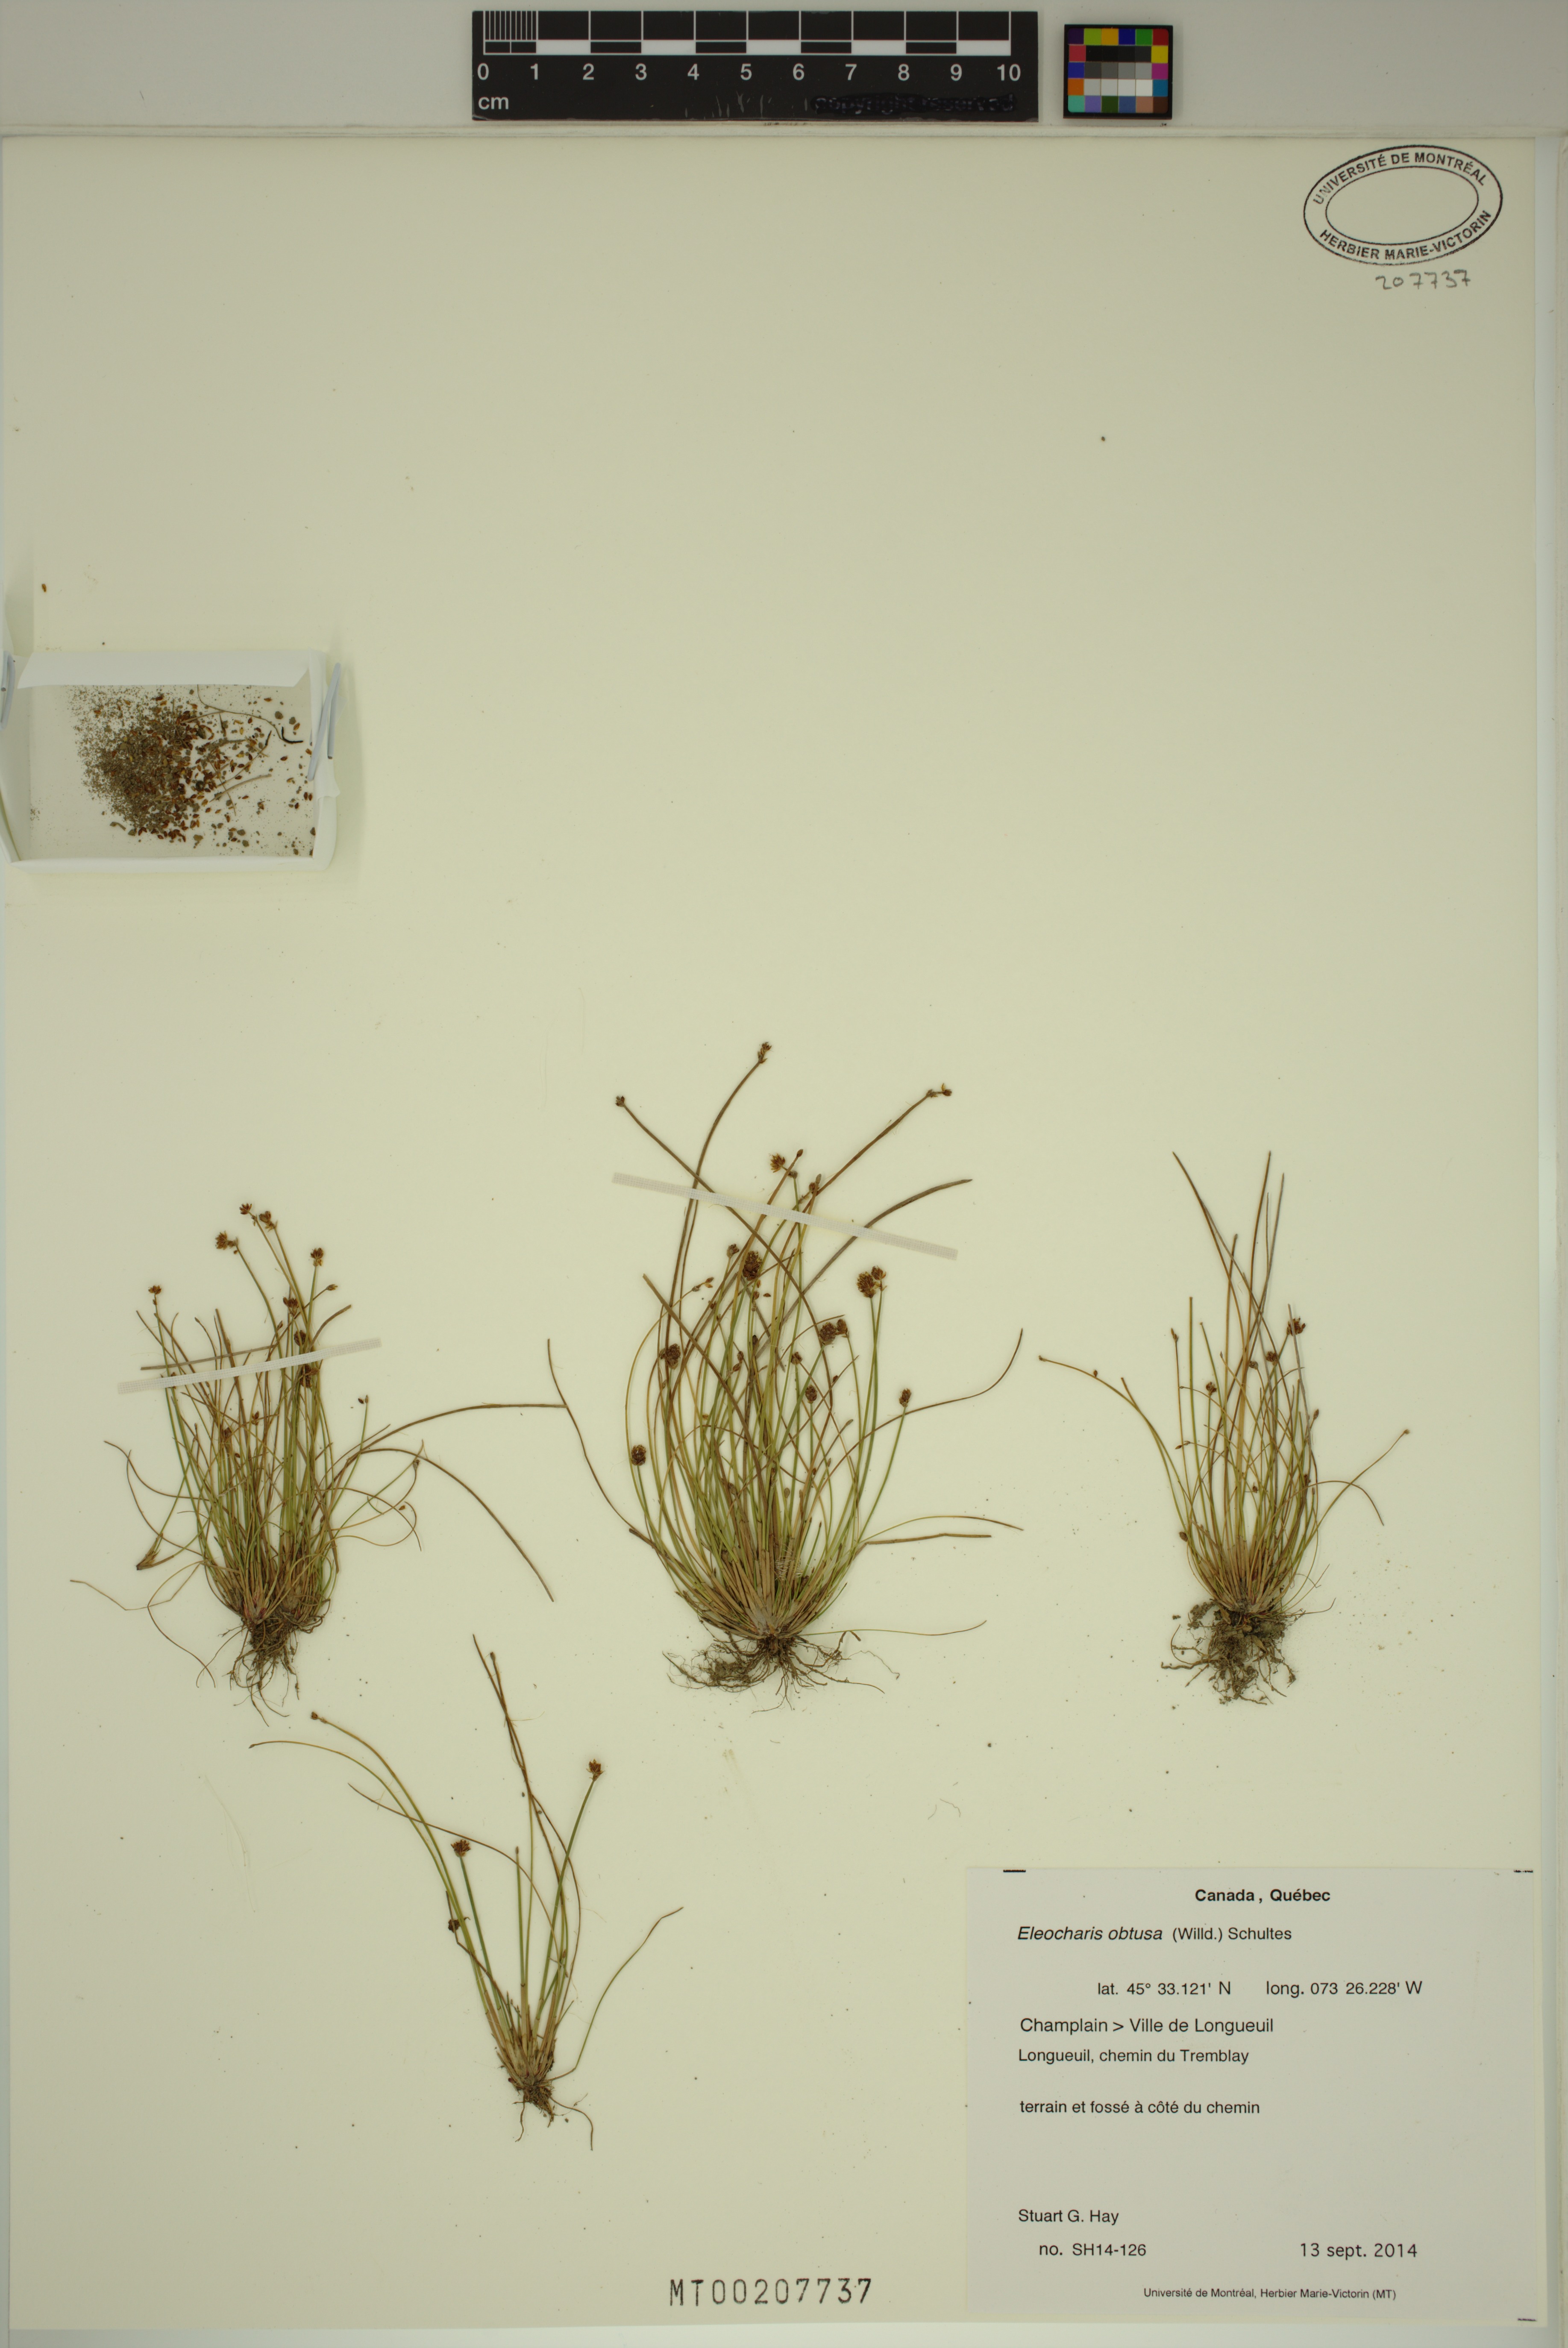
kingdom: Plantae
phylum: Tracheophyta
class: Liliopsida
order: Poales
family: Cyperaceae
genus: Eleocharis
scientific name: Eleocharis obtusa
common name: Blunt spikerush
